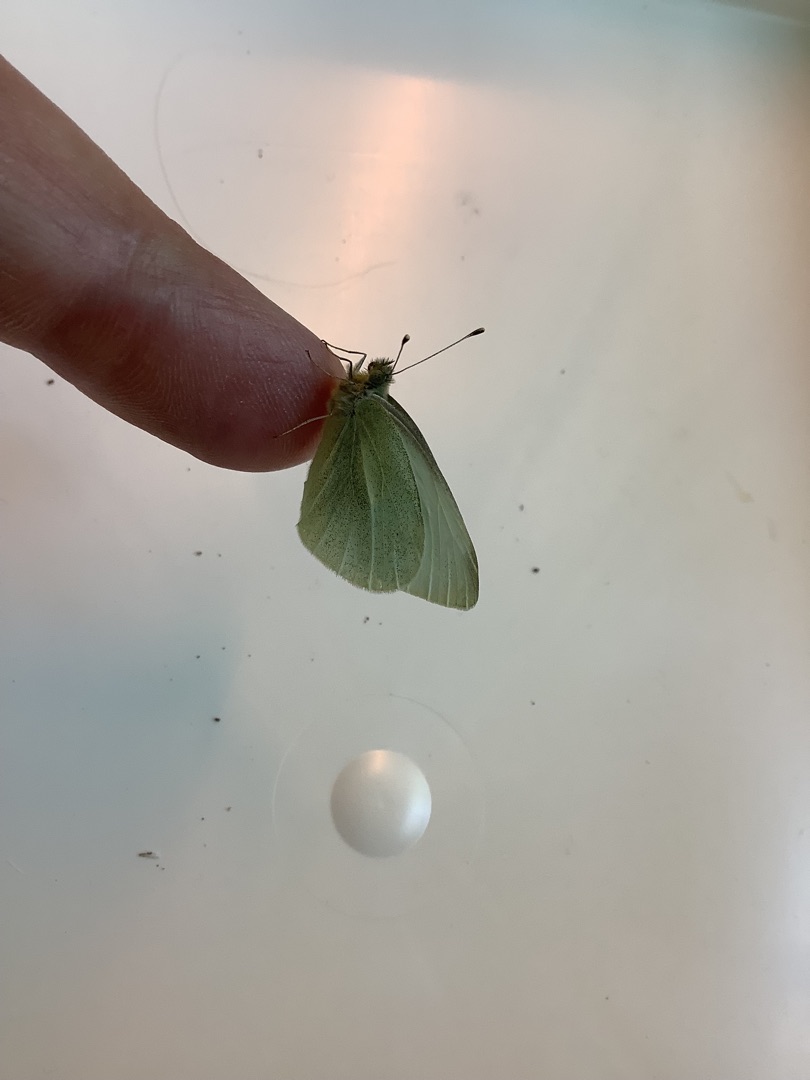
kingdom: Animalia
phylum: Arthropoda
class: Insecta
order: Lepidoptera
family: Pieridae
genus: Pieris
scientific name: Pieris rapae
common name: Lille kålsommerfugl
